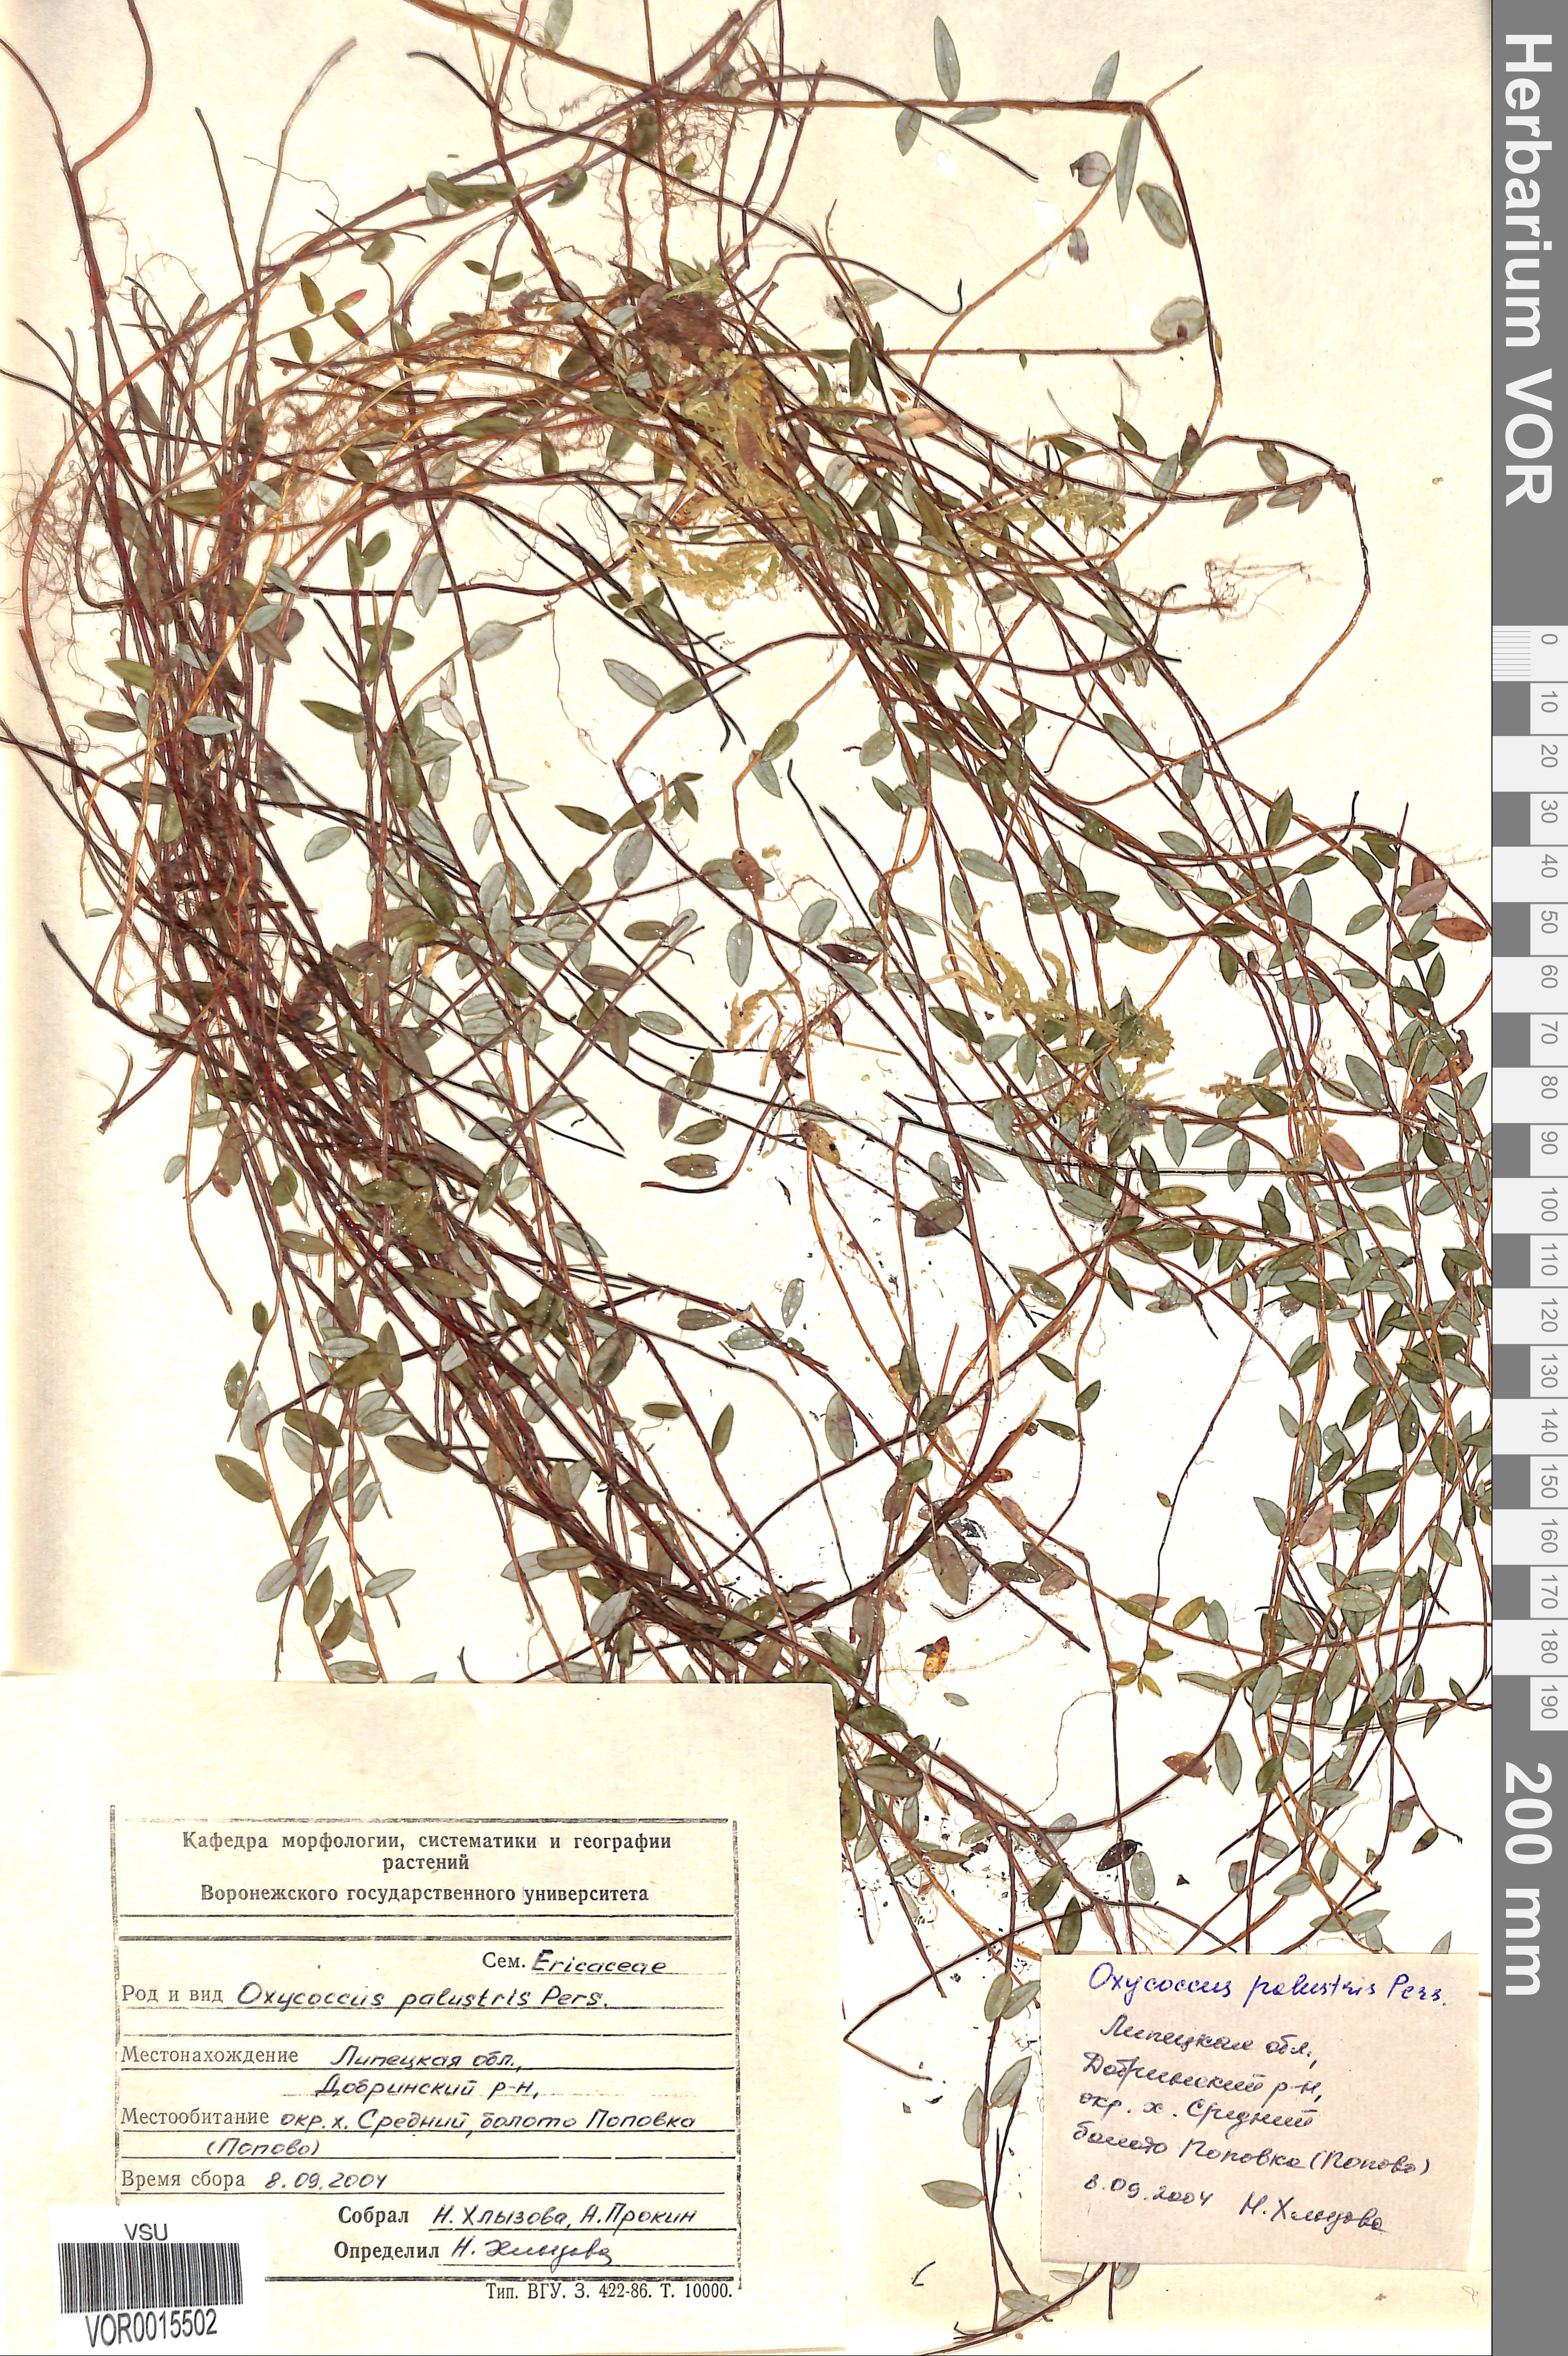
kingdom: Plantae
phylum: Tracheophyta
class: Magnoliopsida
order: Ericales
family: Ericaceae
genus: Vaccinium
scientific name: Vaccinium oxycoccos
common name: Cranberry
